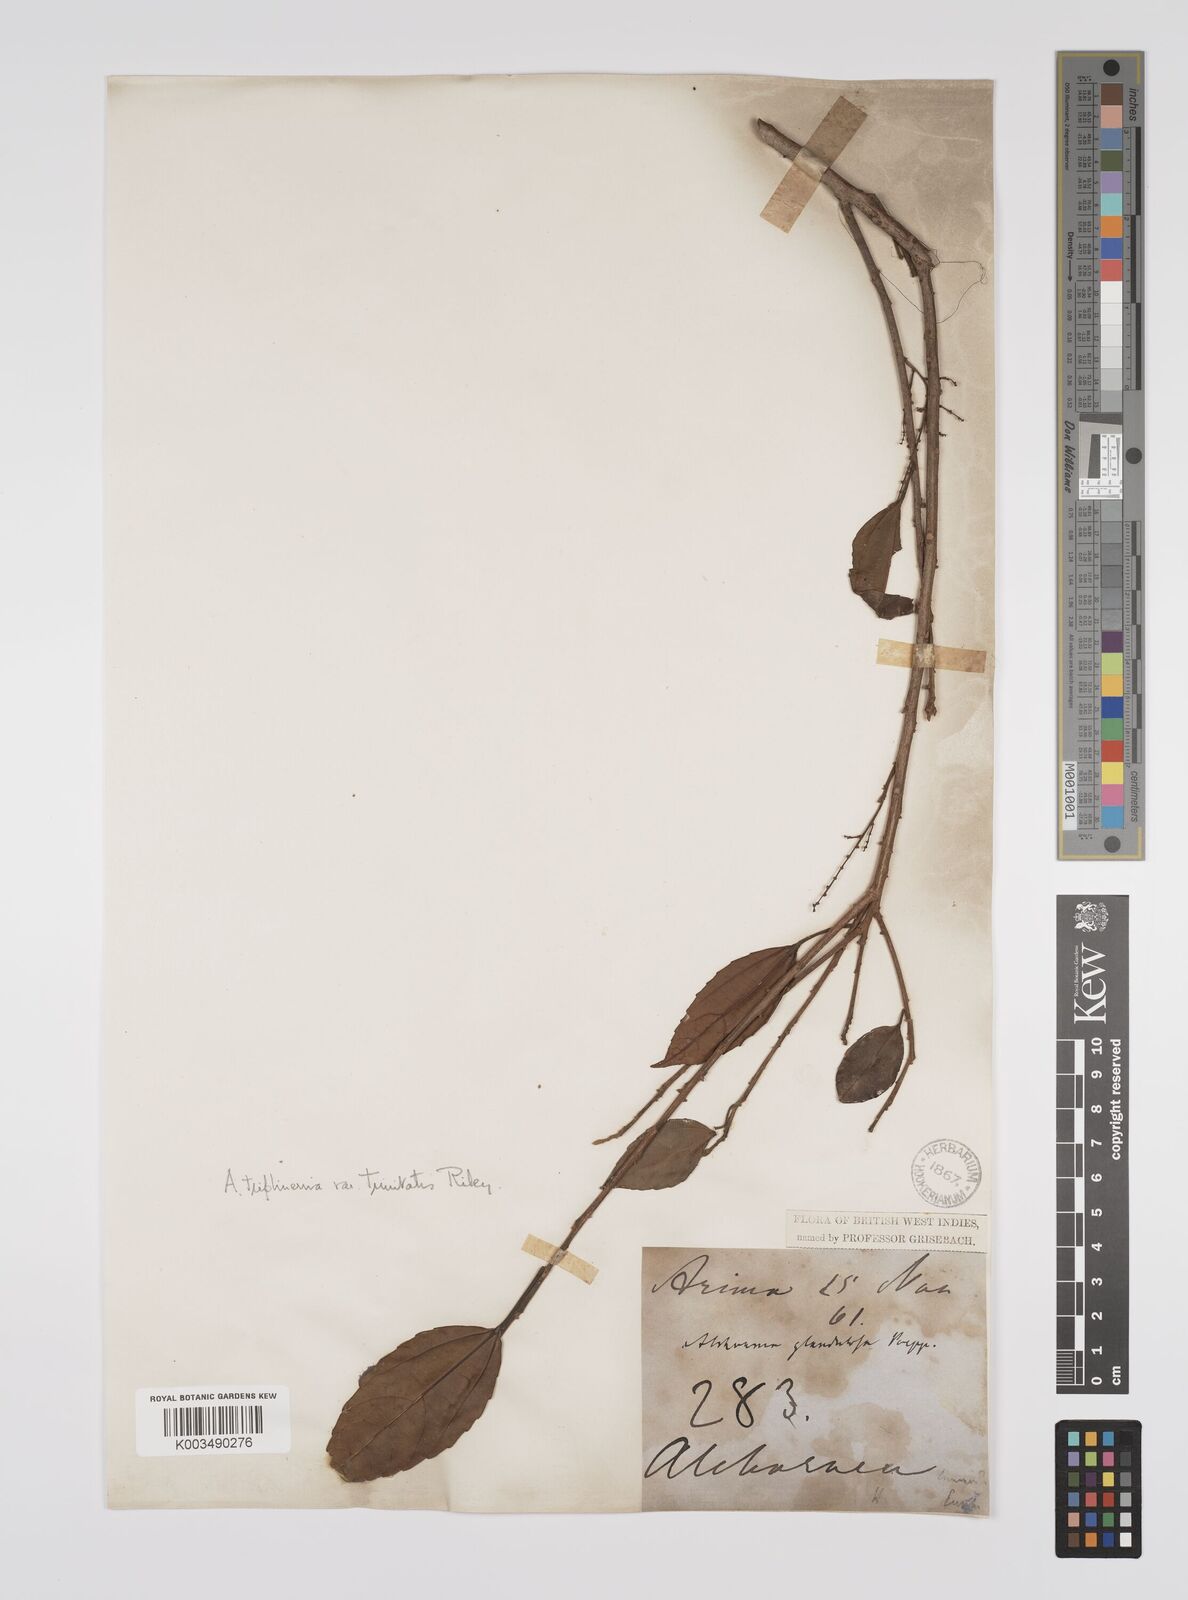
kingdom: Plantae
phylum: Tracheophyta
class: Magnoliopsida
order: Malpighiales
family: Euphorbiaceae
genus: Alchornea
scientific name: Alchornea triplinervia
